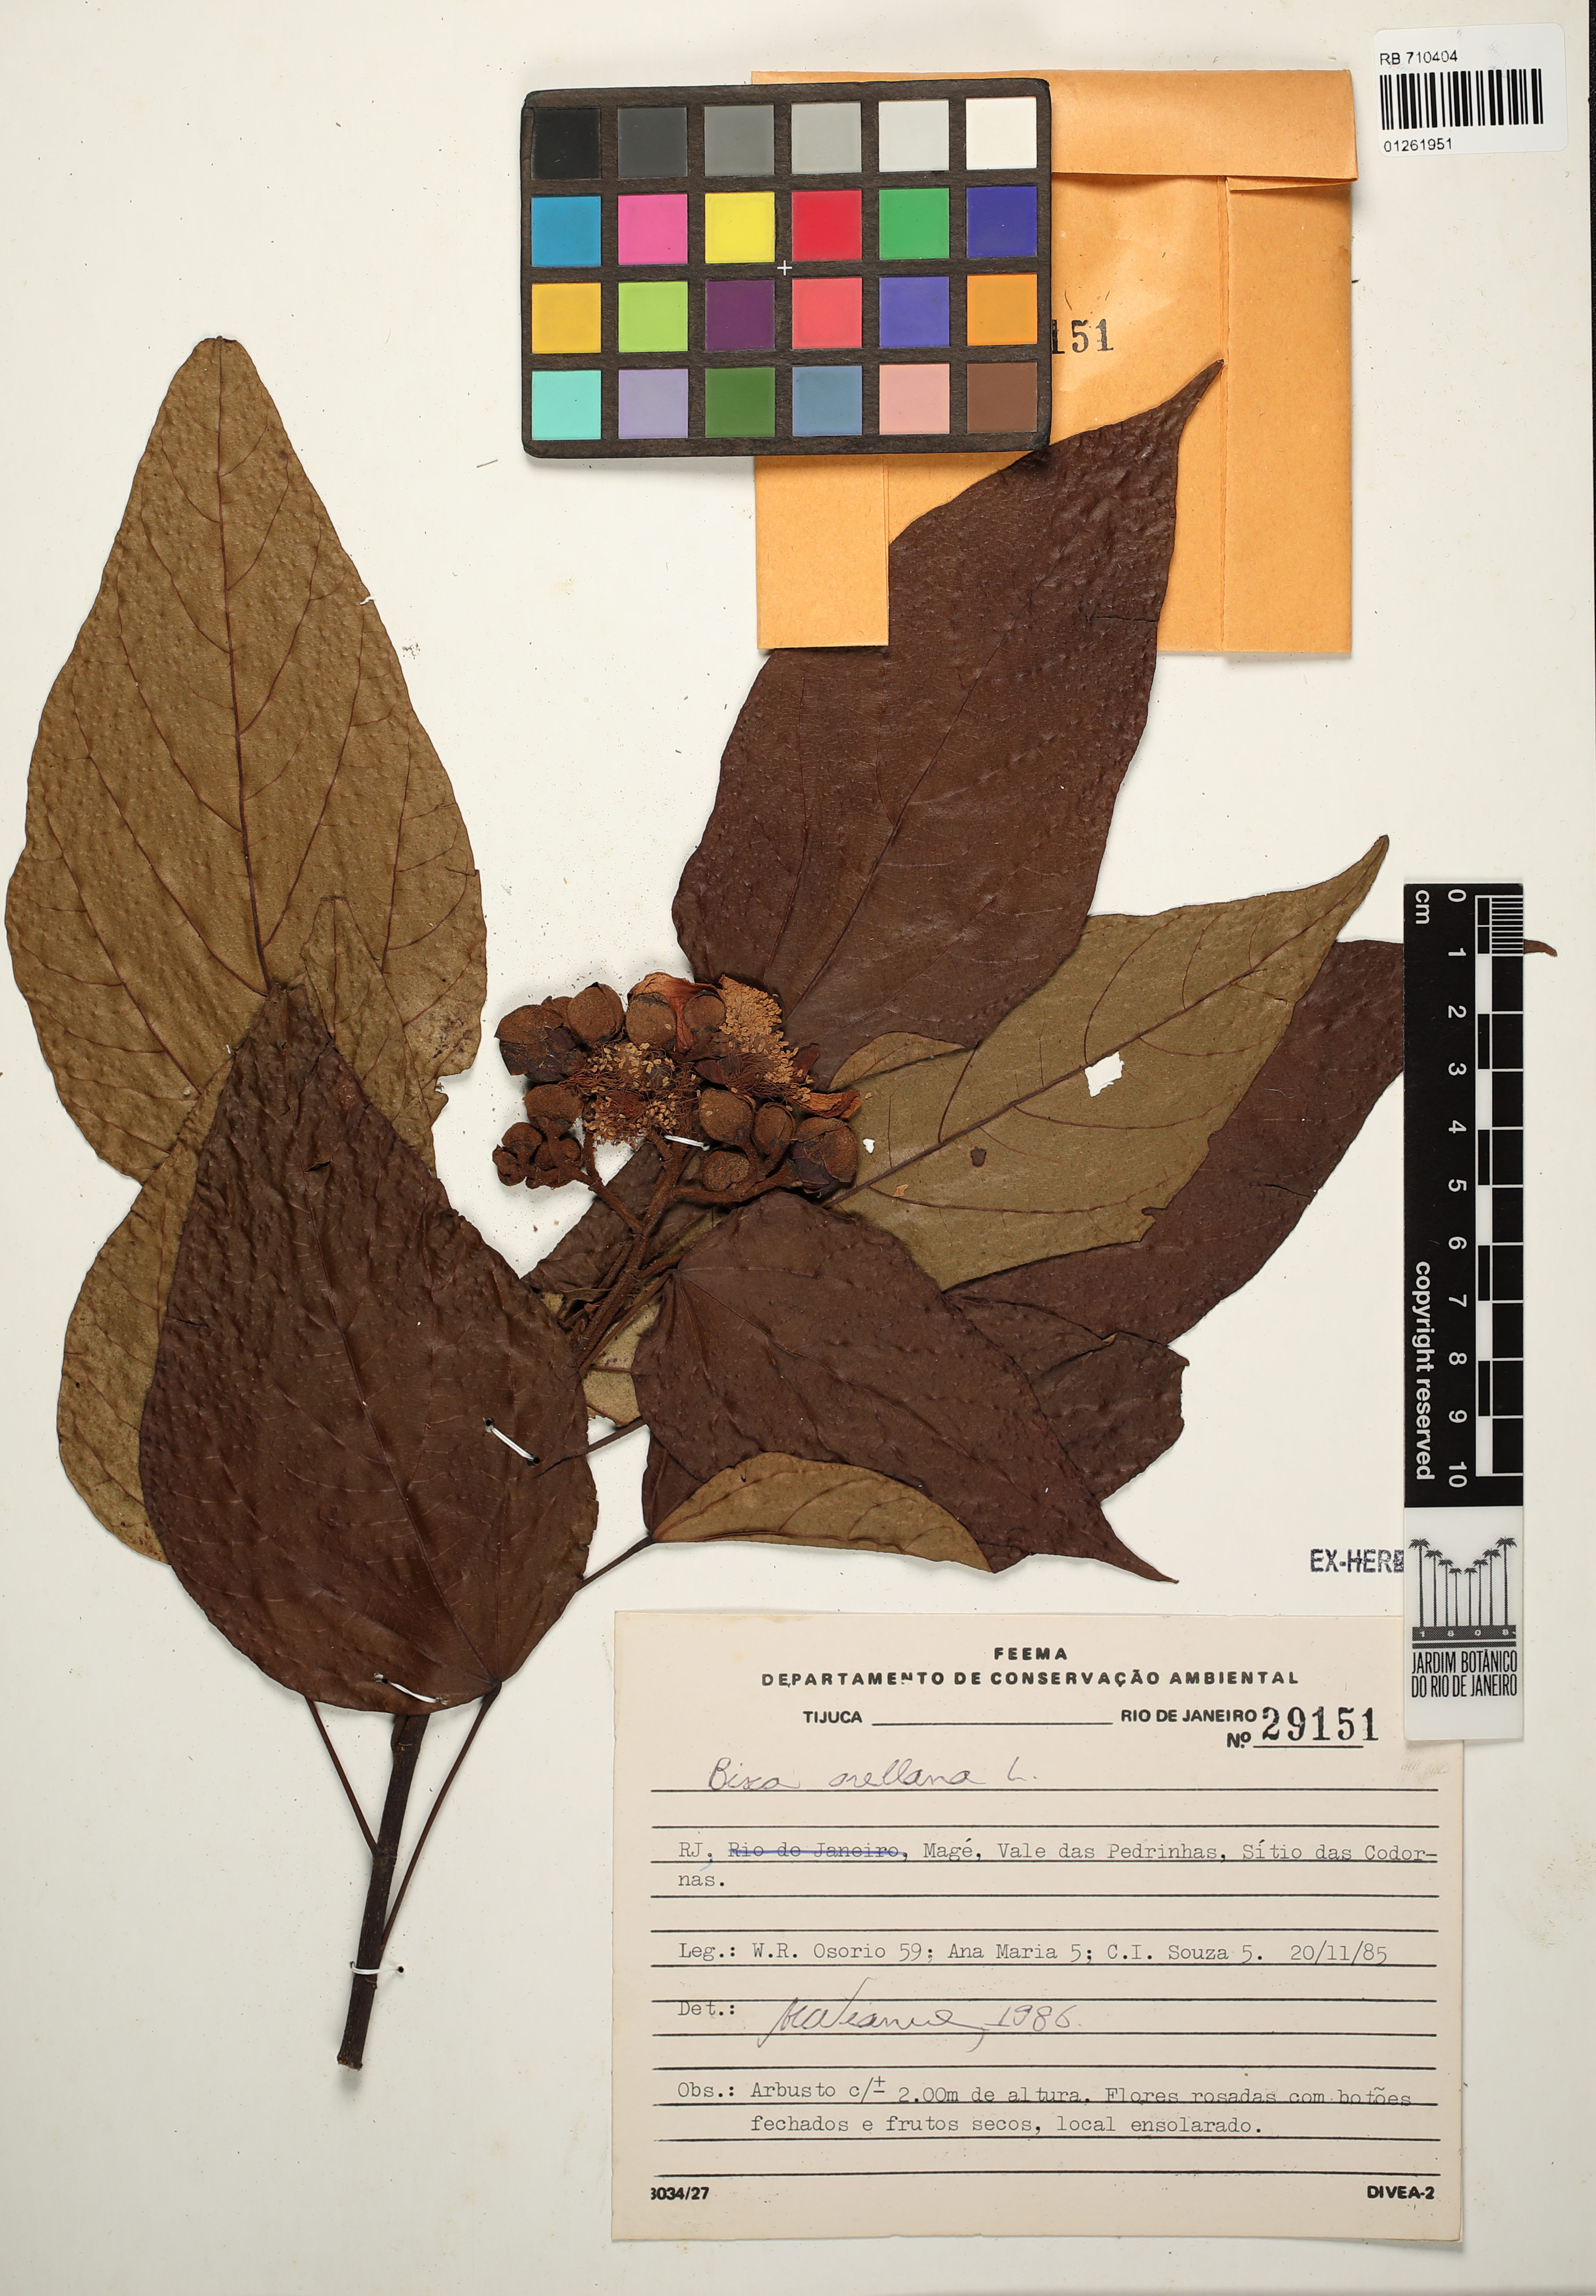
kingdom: Plantae
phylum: Tracheophyta
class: Magnoliopsida
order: Malvales
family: Bixaceae
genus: Bixa
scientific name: Bixa orellana
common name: Lipsticktree
